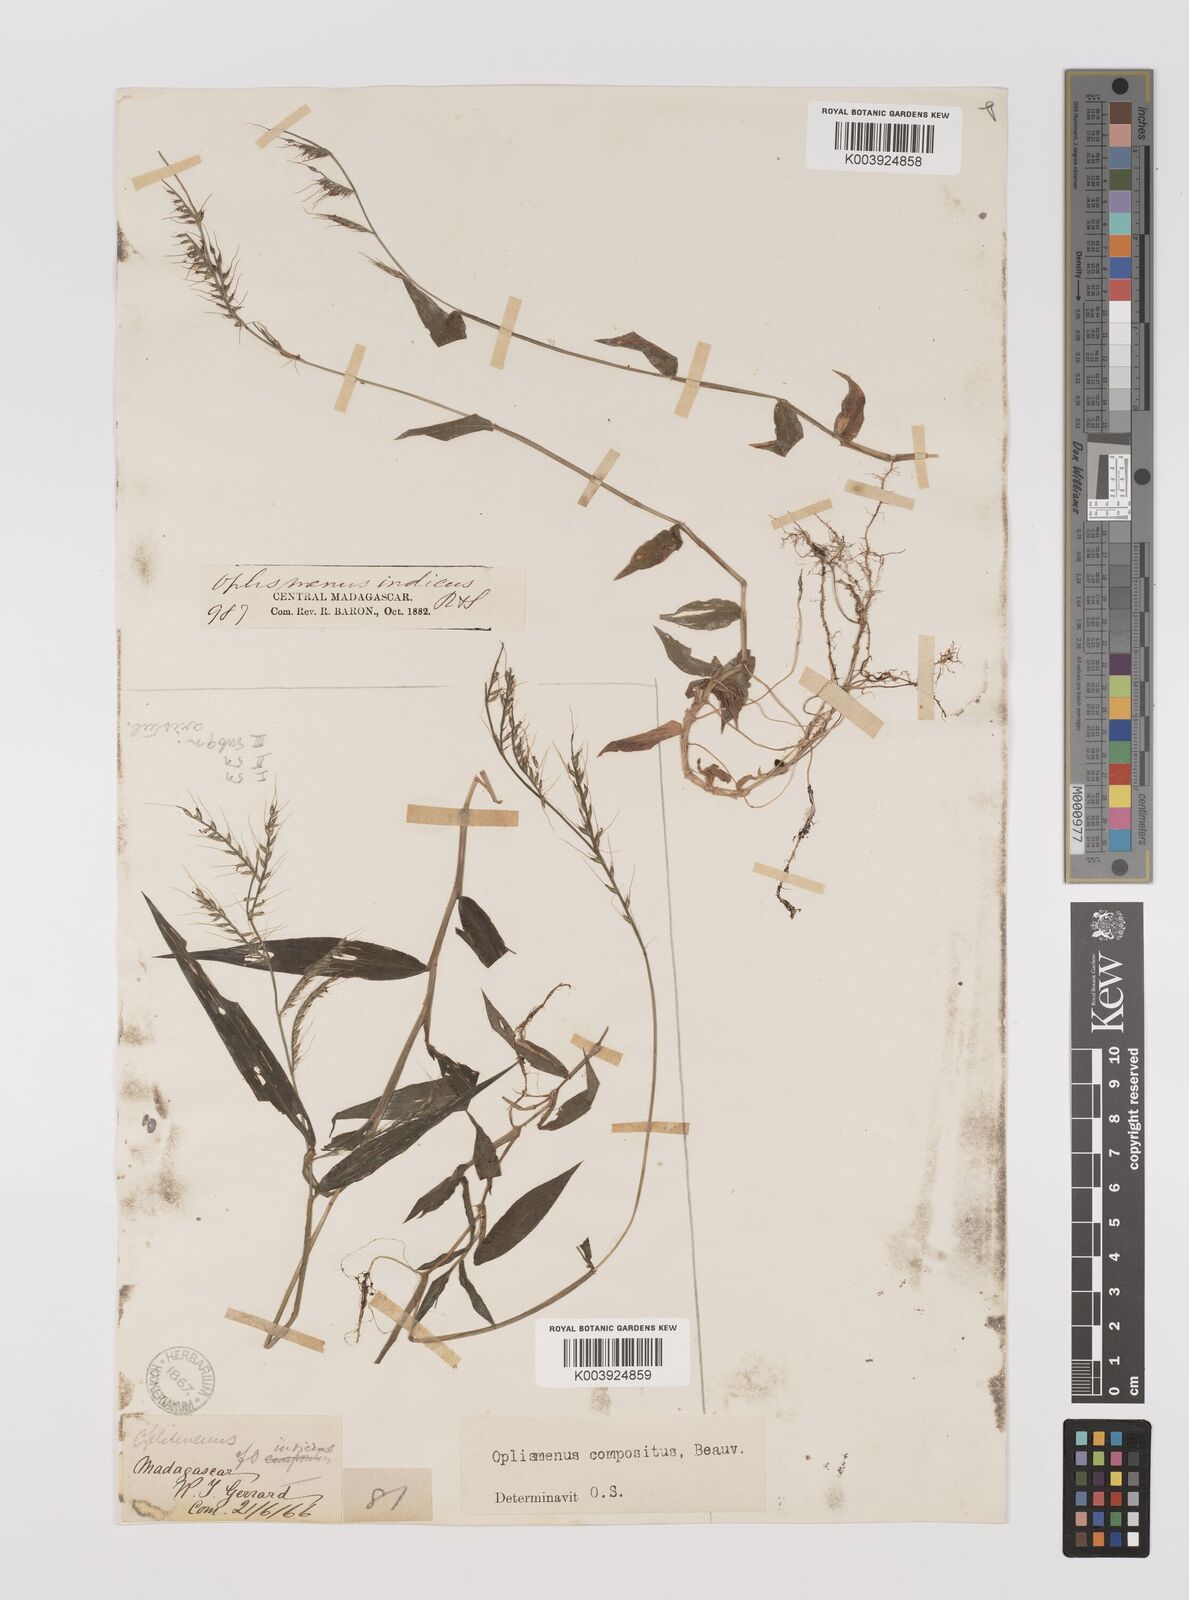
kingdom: Plantae
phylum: Tracheophyta
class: Liliopsida
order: Poales
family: Poaceae
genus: Oplismenus
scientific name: Oplismenus compositus
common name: Running mountain grass
